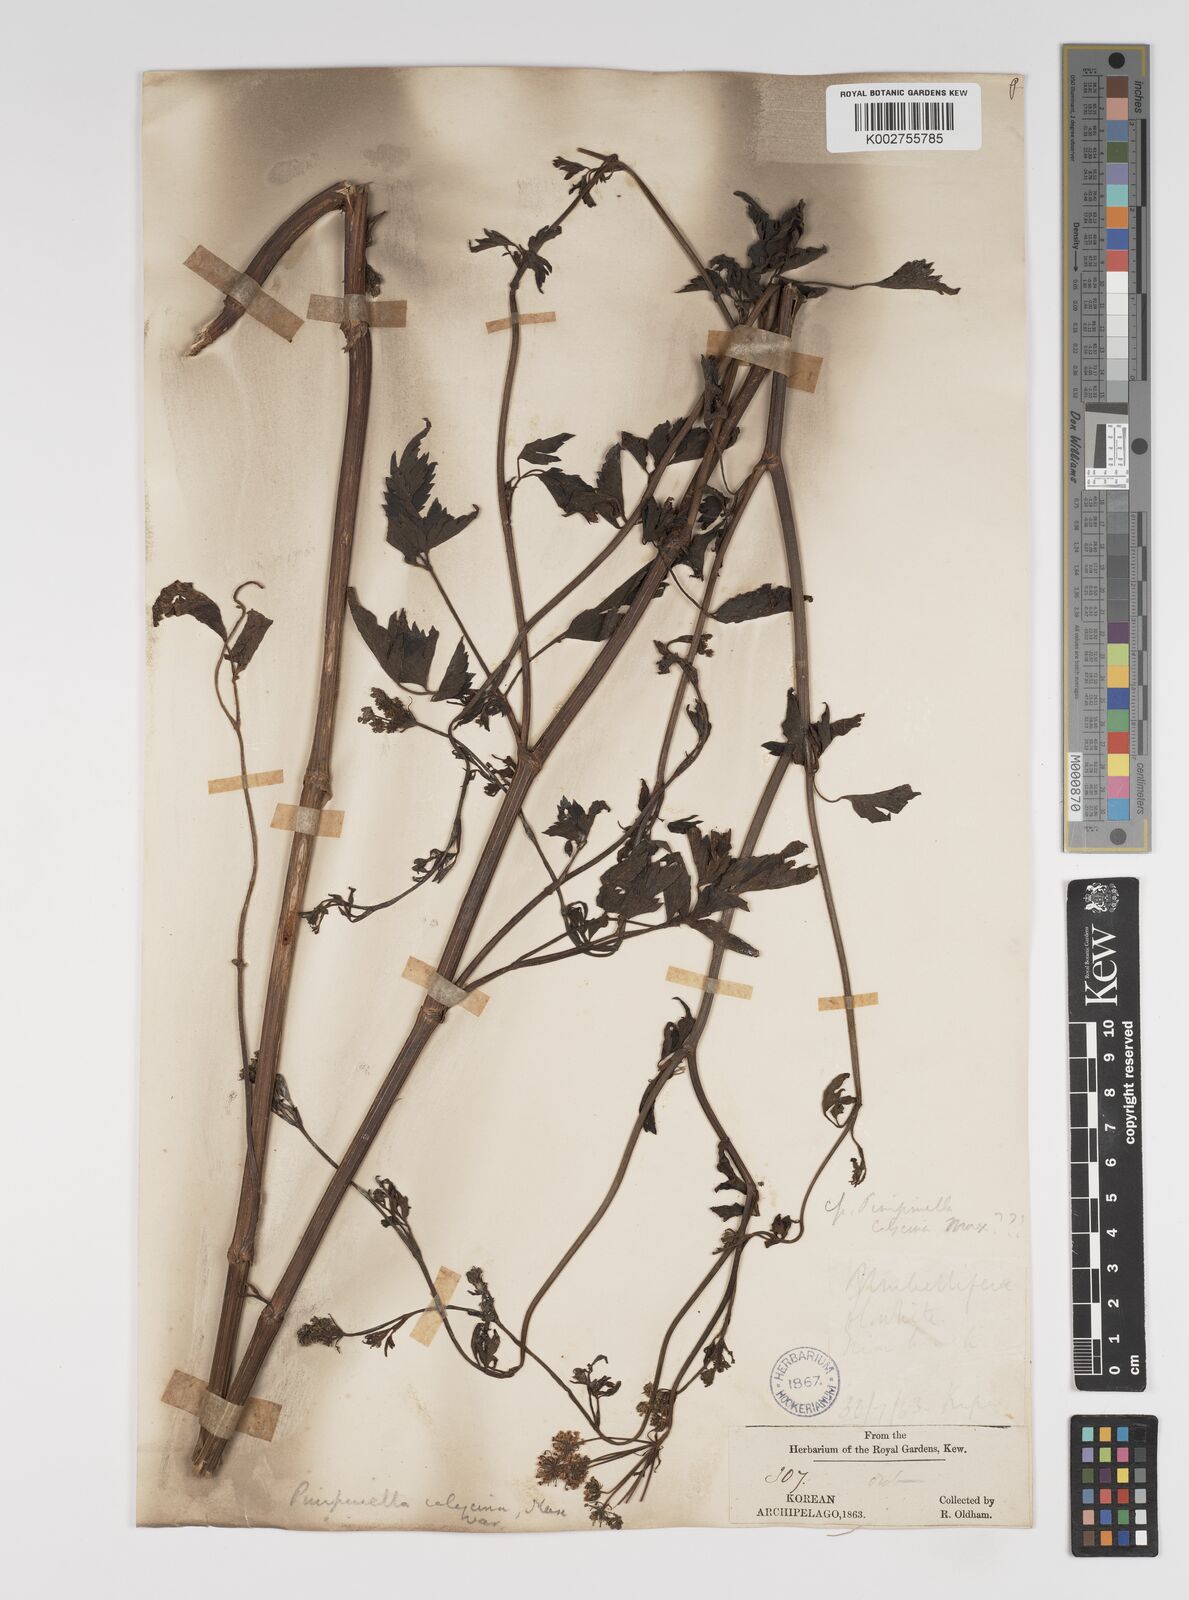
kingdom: Plantae
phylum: Tracheophyta
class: Magnoliopsida
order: Apiales
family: Apiaceae
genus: Spuriopimpinella
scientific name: Spuriopimpinella calycina
